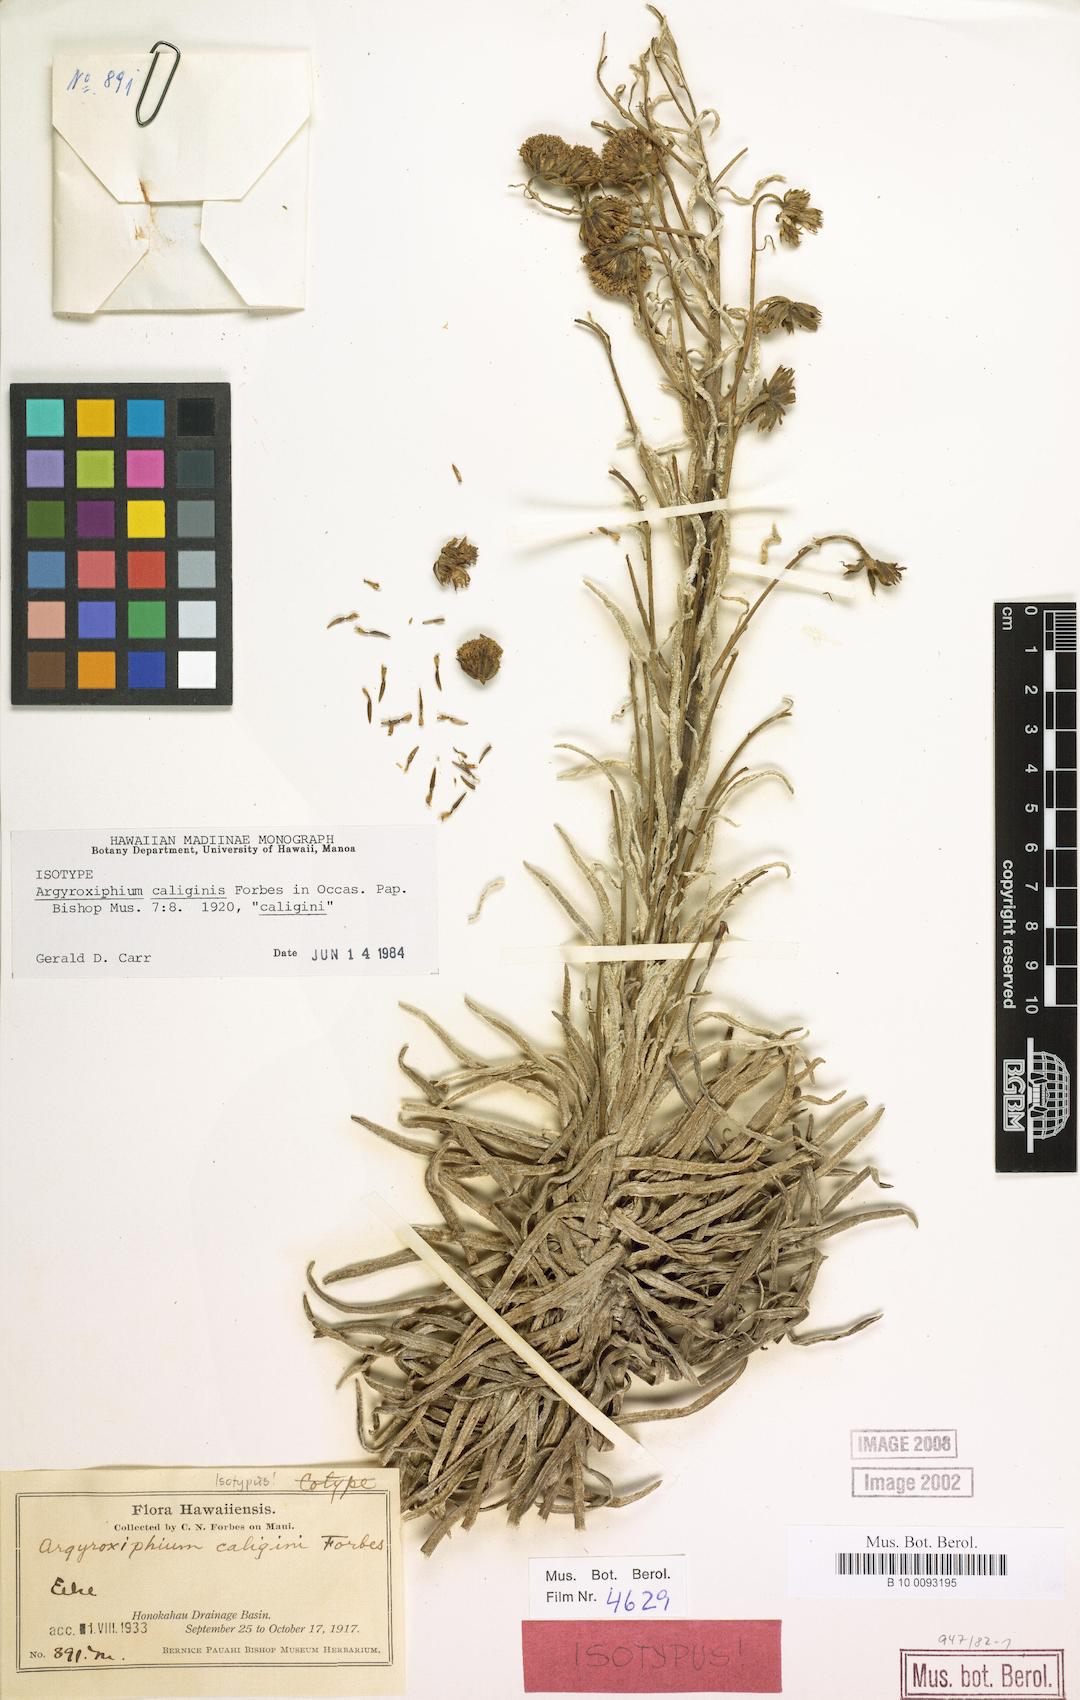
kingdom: Plantae
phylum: Tracheophyta
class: Magnoliopsida
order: Asterales
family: Asteraceae
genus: Argyroxiphium
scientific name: Argyroxiphium caligini
